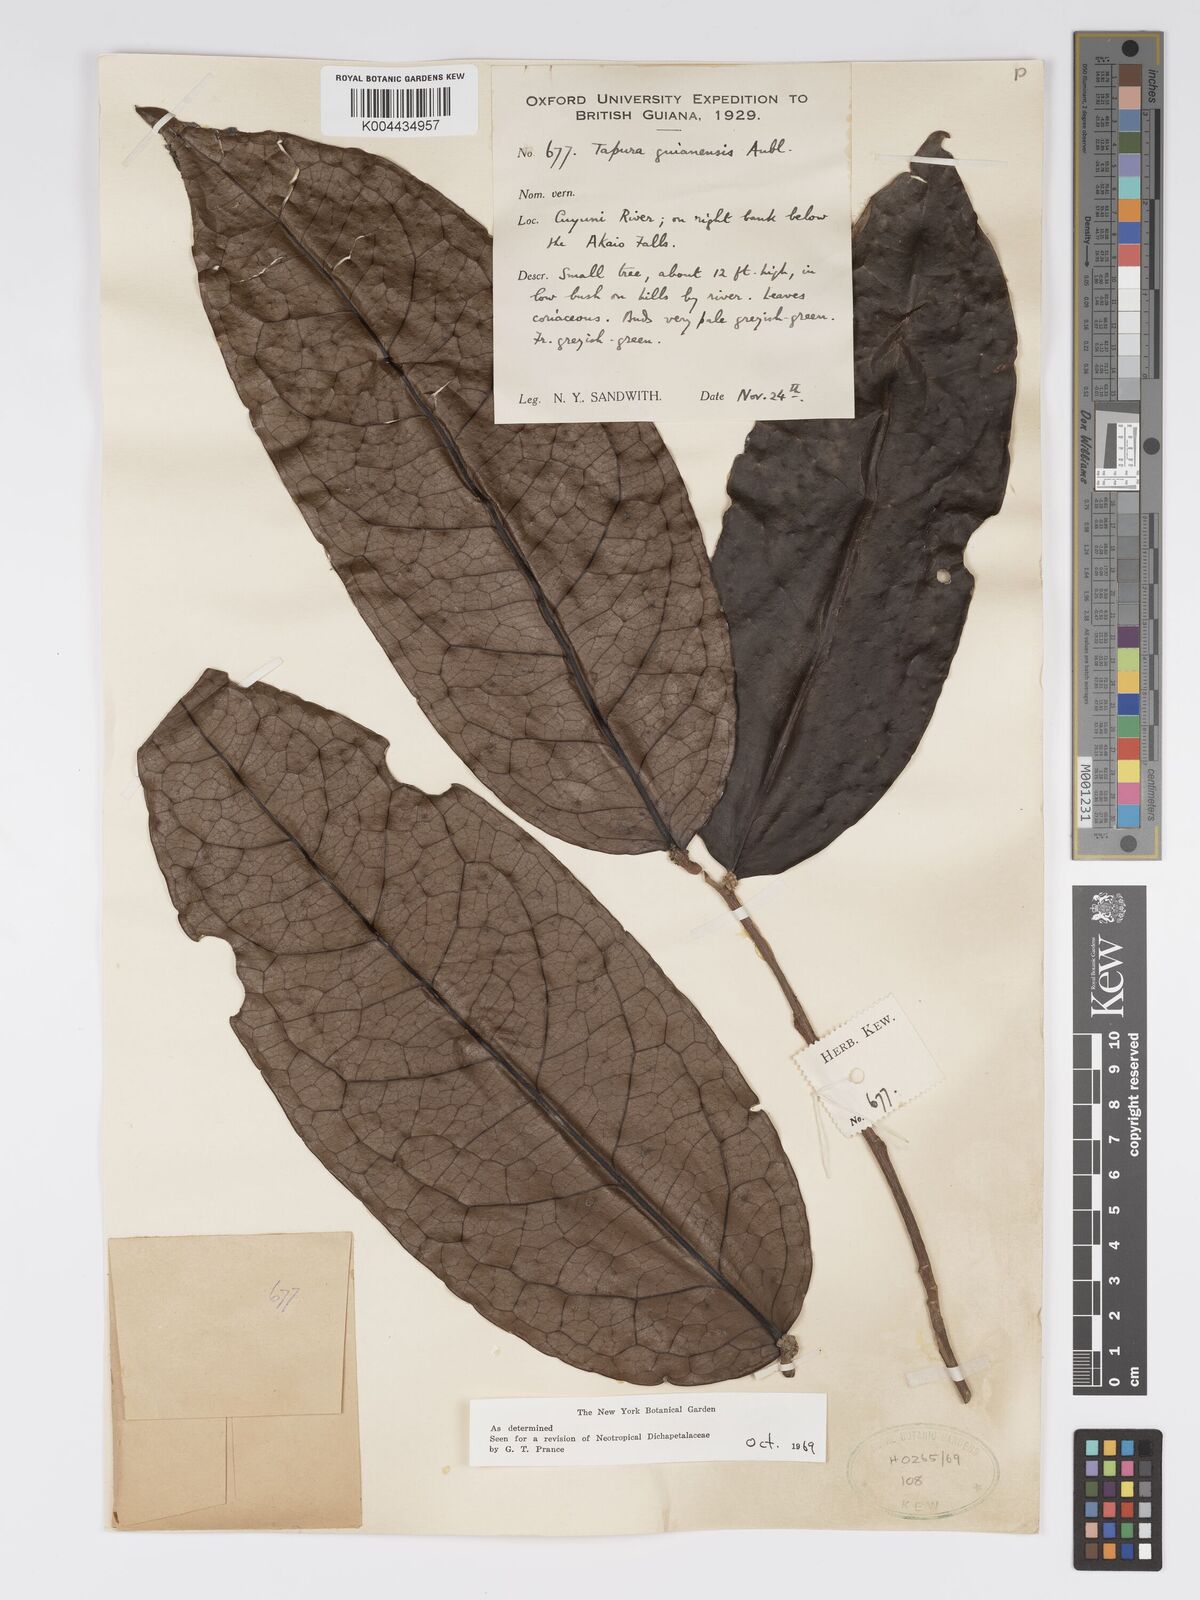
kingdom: Plantae
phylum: Tracheophyta
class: Magnoliopsida
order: Malpighiales
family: Dichapetalaceae
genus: Tapura
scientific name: Tapura guianensis
